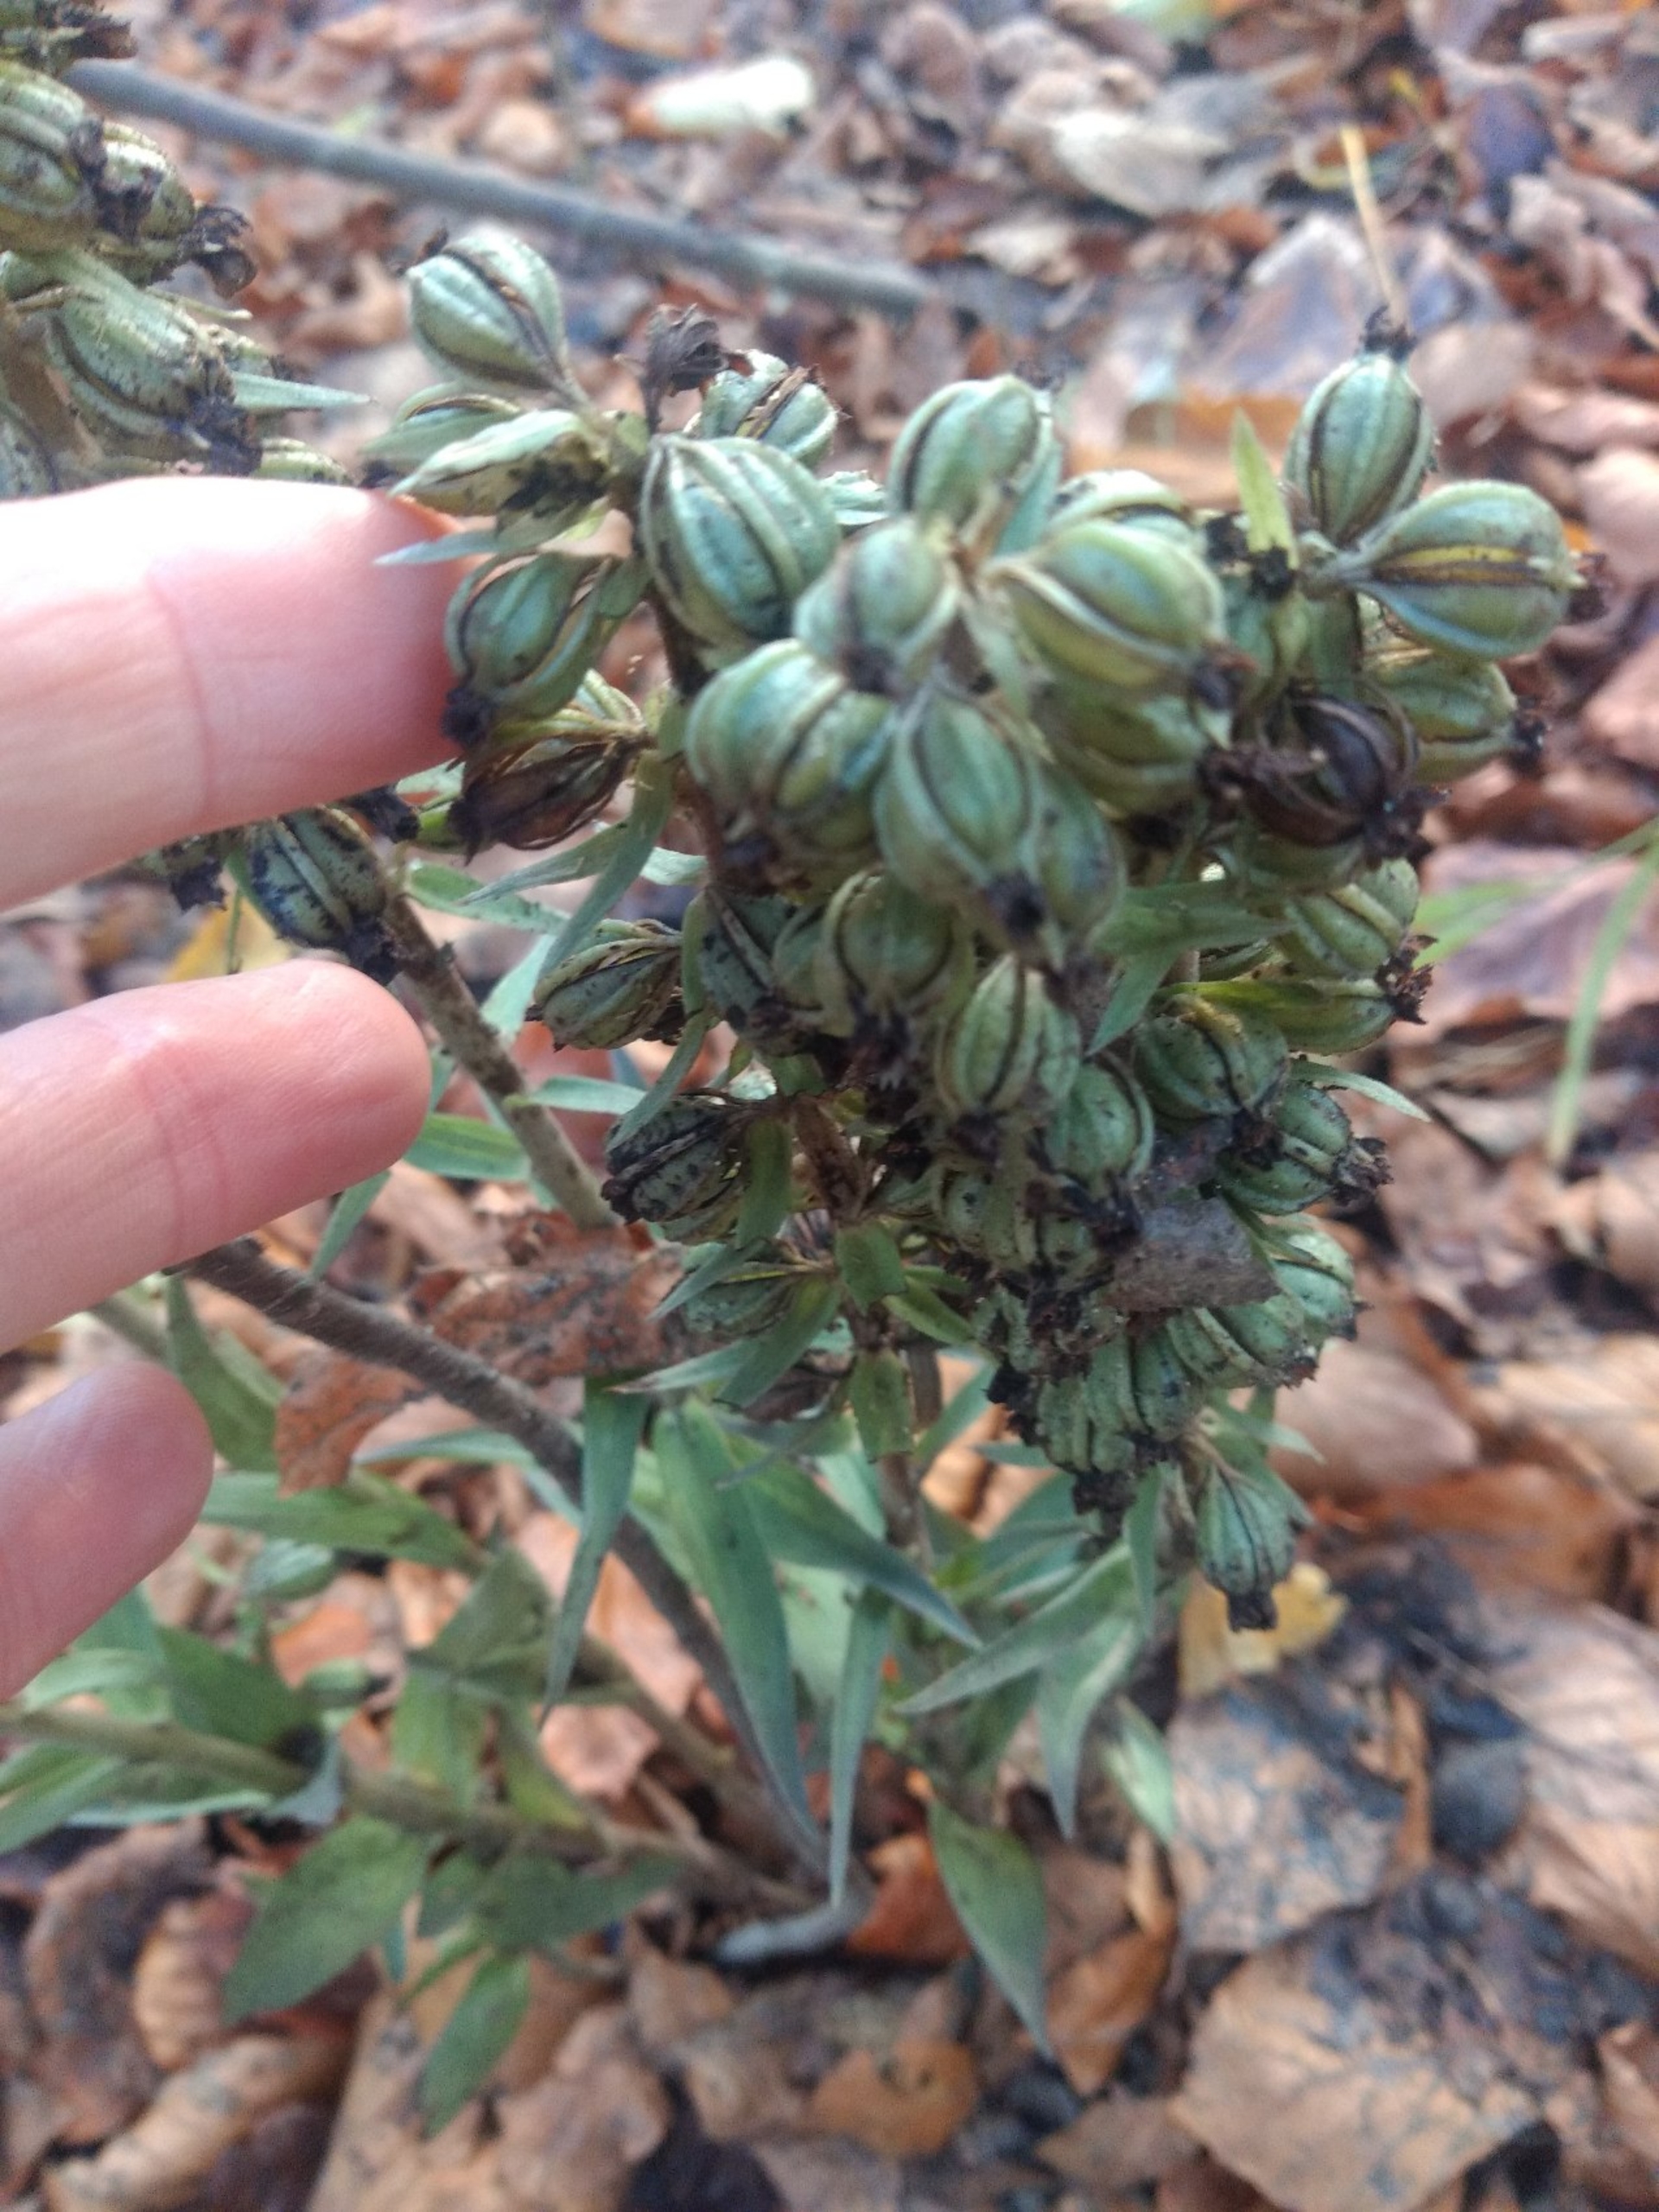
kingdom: Plantae
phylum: Tracheophyta
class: Liliopsida
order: Asparagales
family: Orchidaceae
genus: Epipactis
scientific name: Epipactis purpurata
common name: Tætblomstret hullæbe
